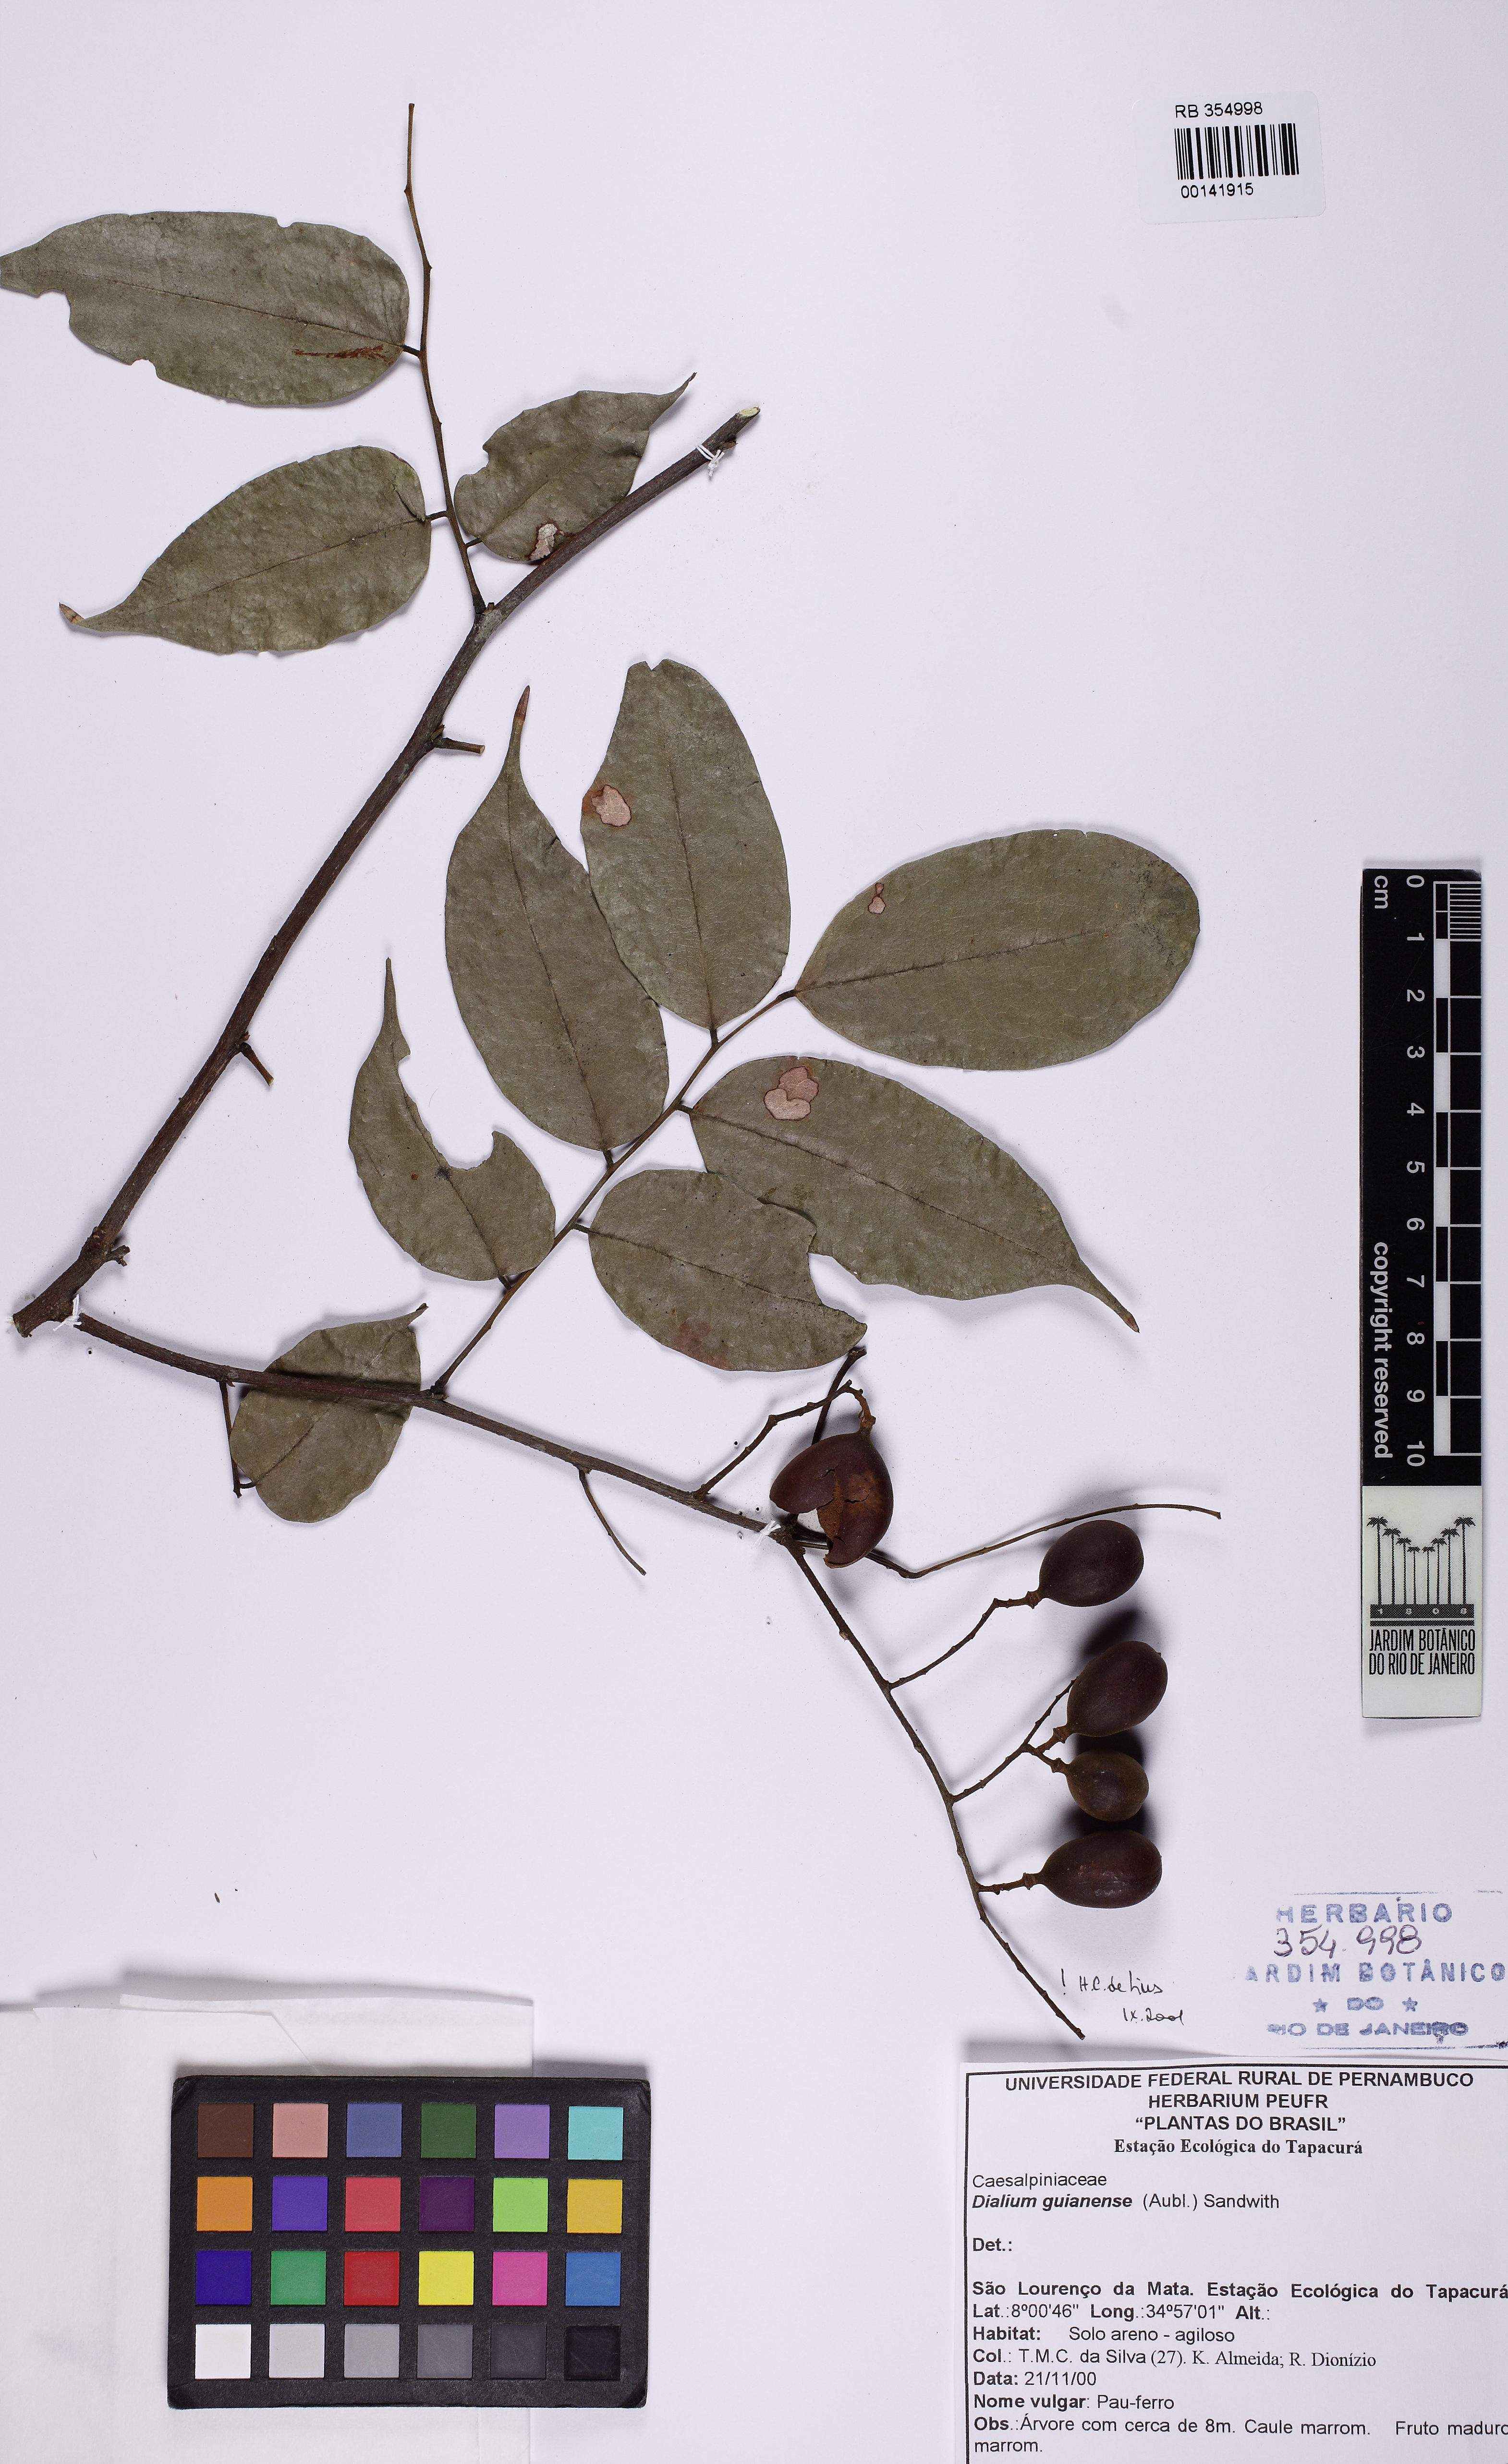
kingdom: Plantae
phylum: Tracheophyta
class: Magnoliopsida
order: Fabales
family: Fabaceae
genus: Dialium
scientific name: Dialium guianense
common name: Ironwood
